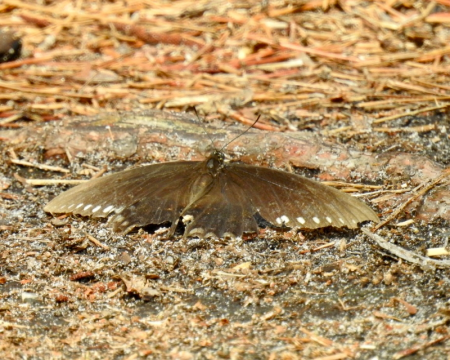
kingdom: Animalia
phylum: Arthropoda
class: Insecta
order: Lepidoptera
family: Papilionidae
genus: Pterourus
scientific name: Pterourus troilus
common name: Spicebush Swallowtail
